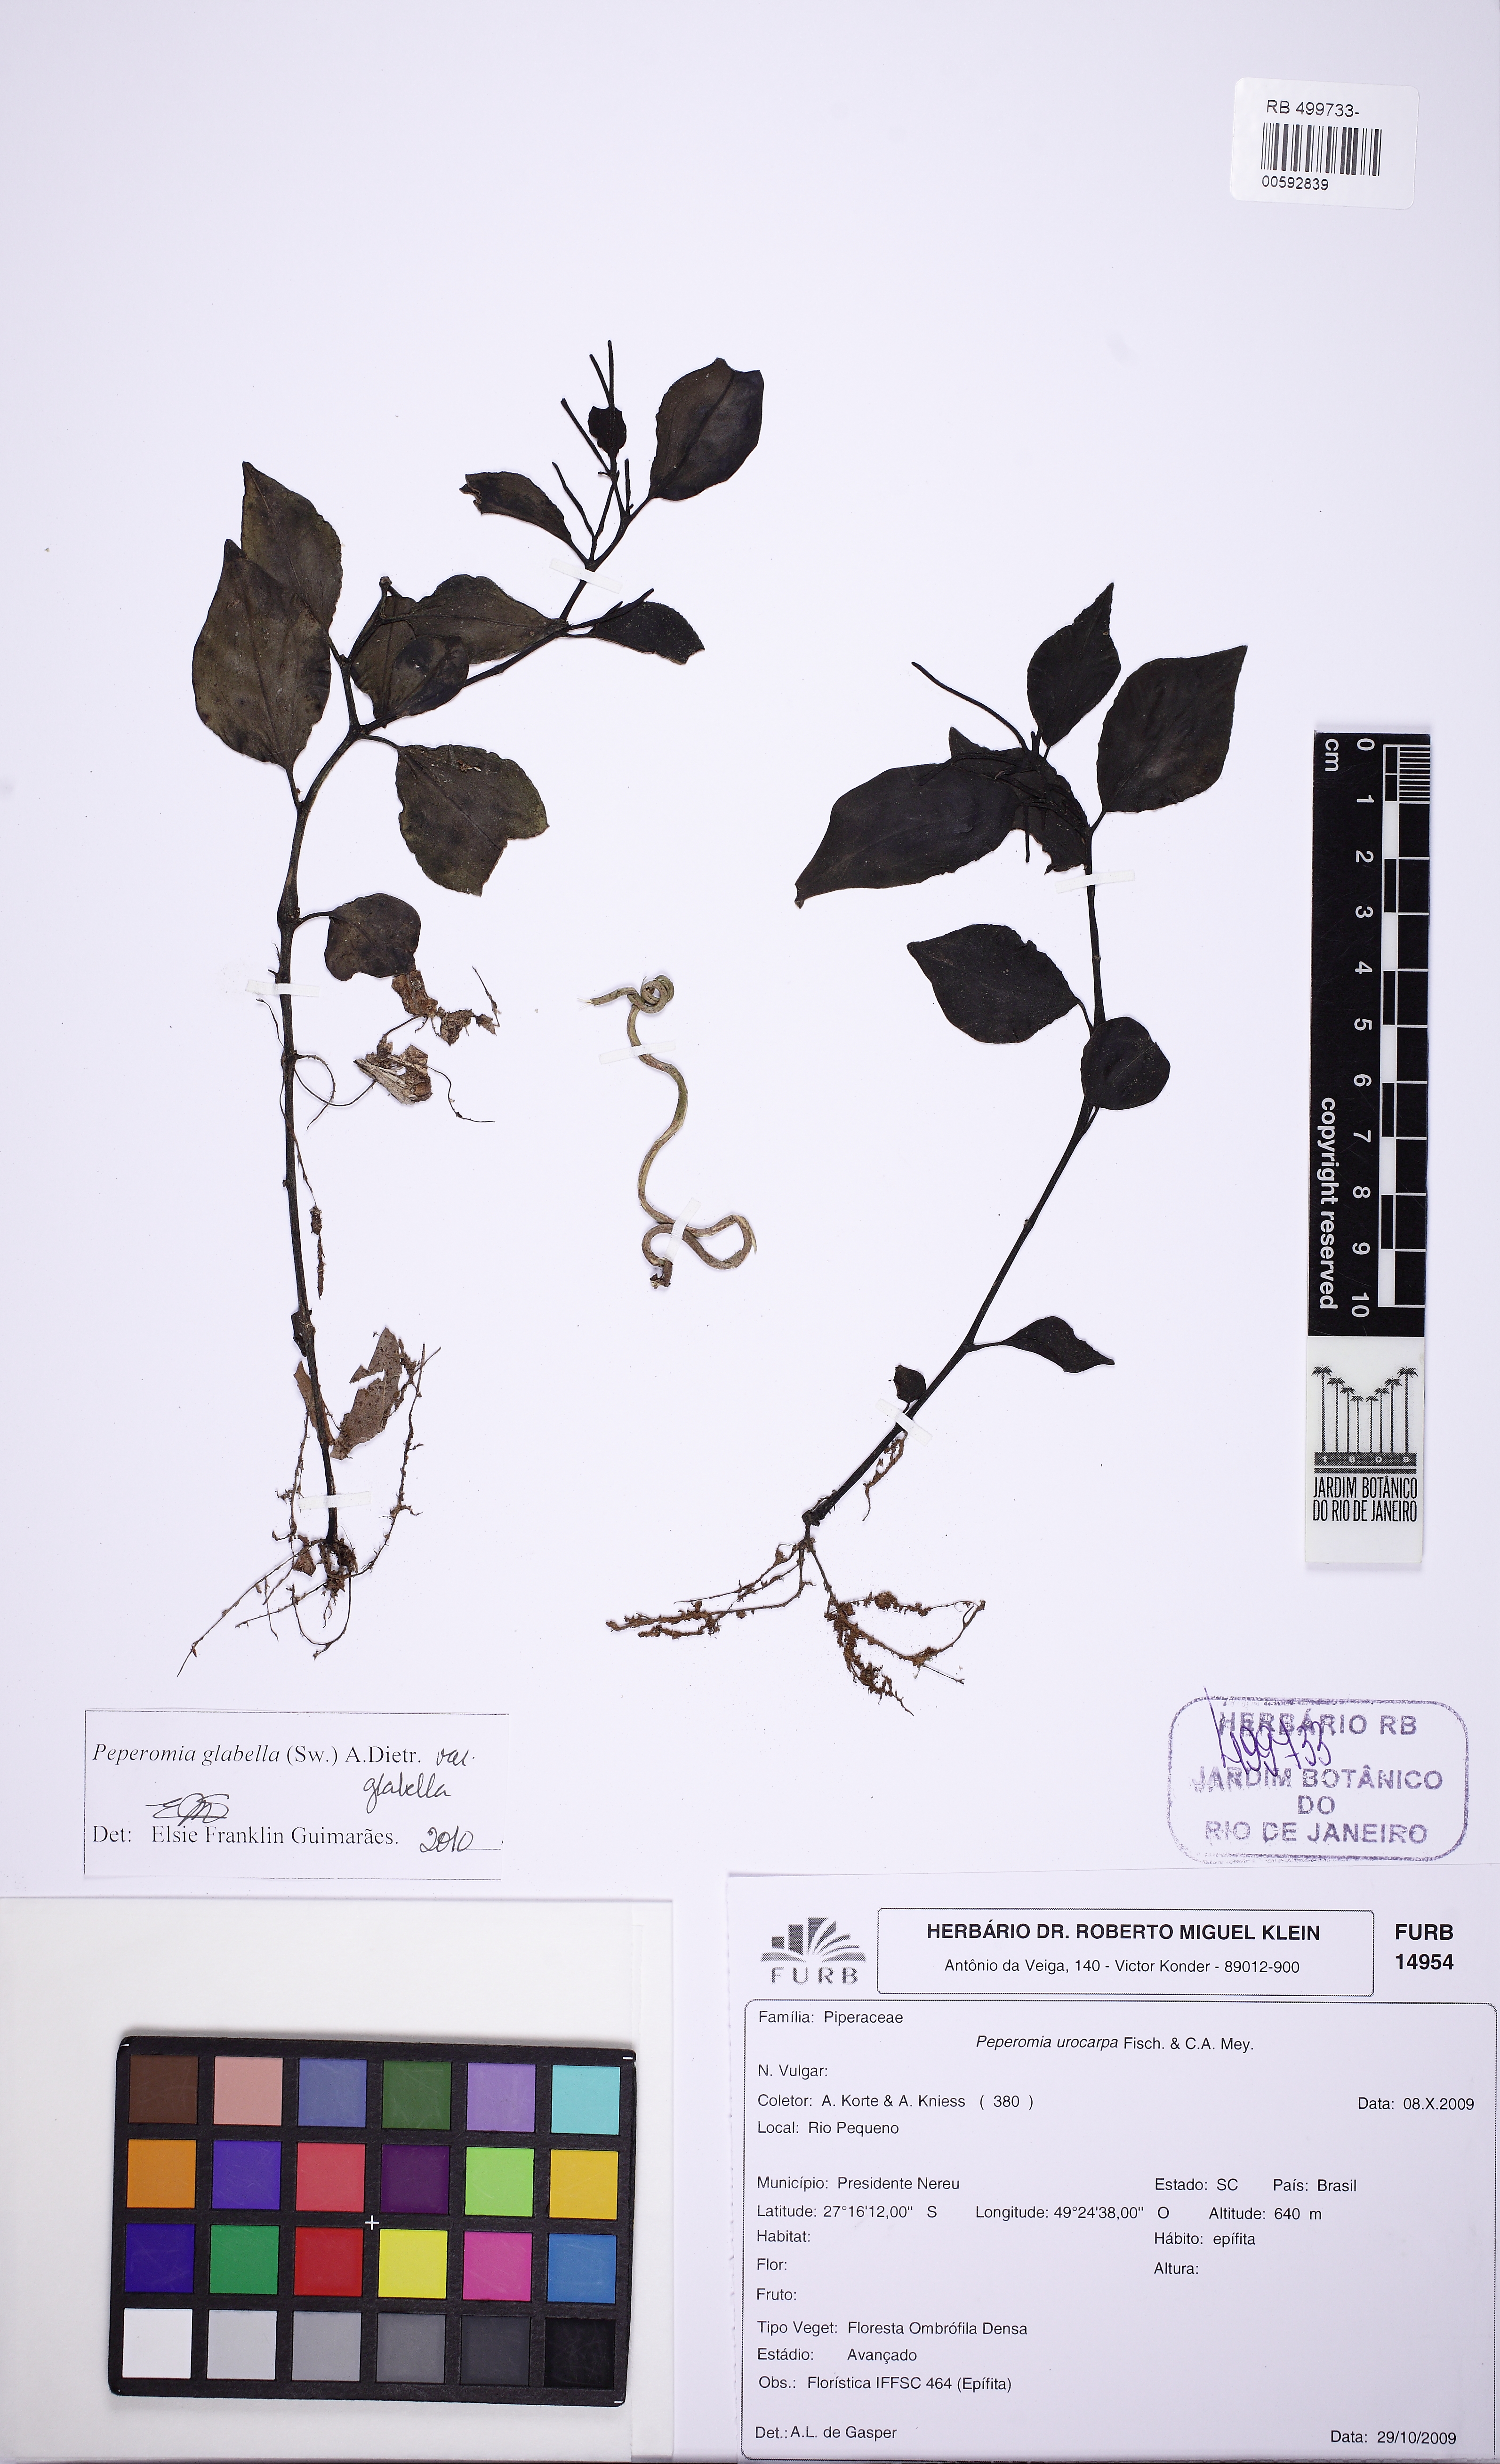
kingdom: Plantae
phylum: Tracheophyta
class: Magnoliopsida
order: Piperales
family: Piperaceae
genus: Peperomia
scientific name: Peperomia glabella
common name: Cypress peperomia
